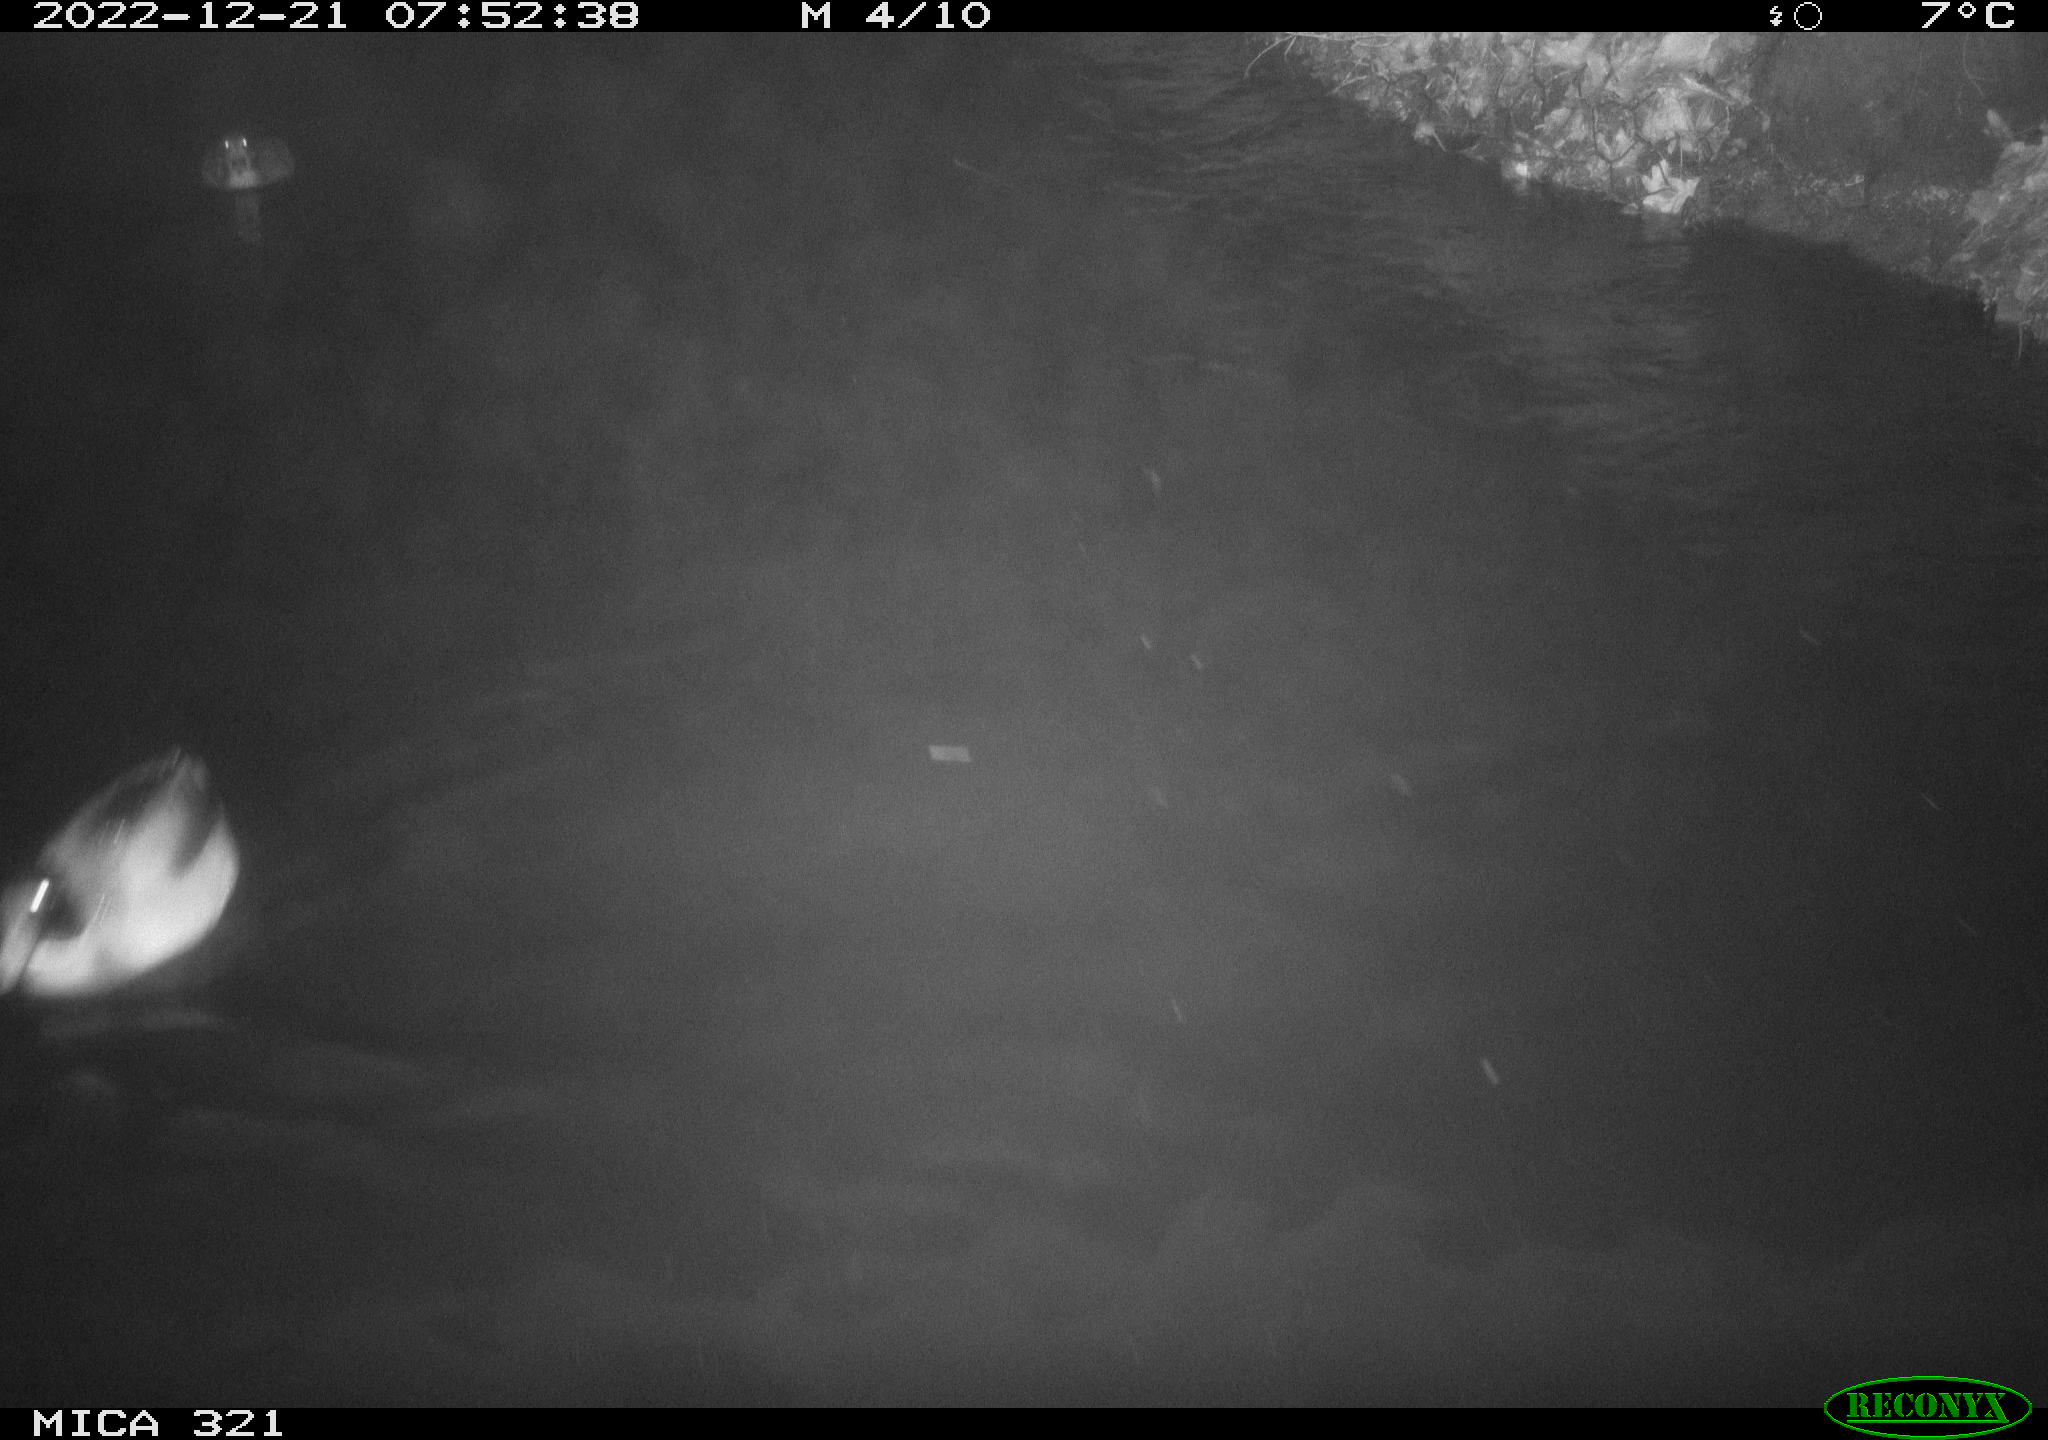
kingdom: Animalia
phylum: Chordata
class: Mammalia
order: Rodentia
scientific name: Rodentia
